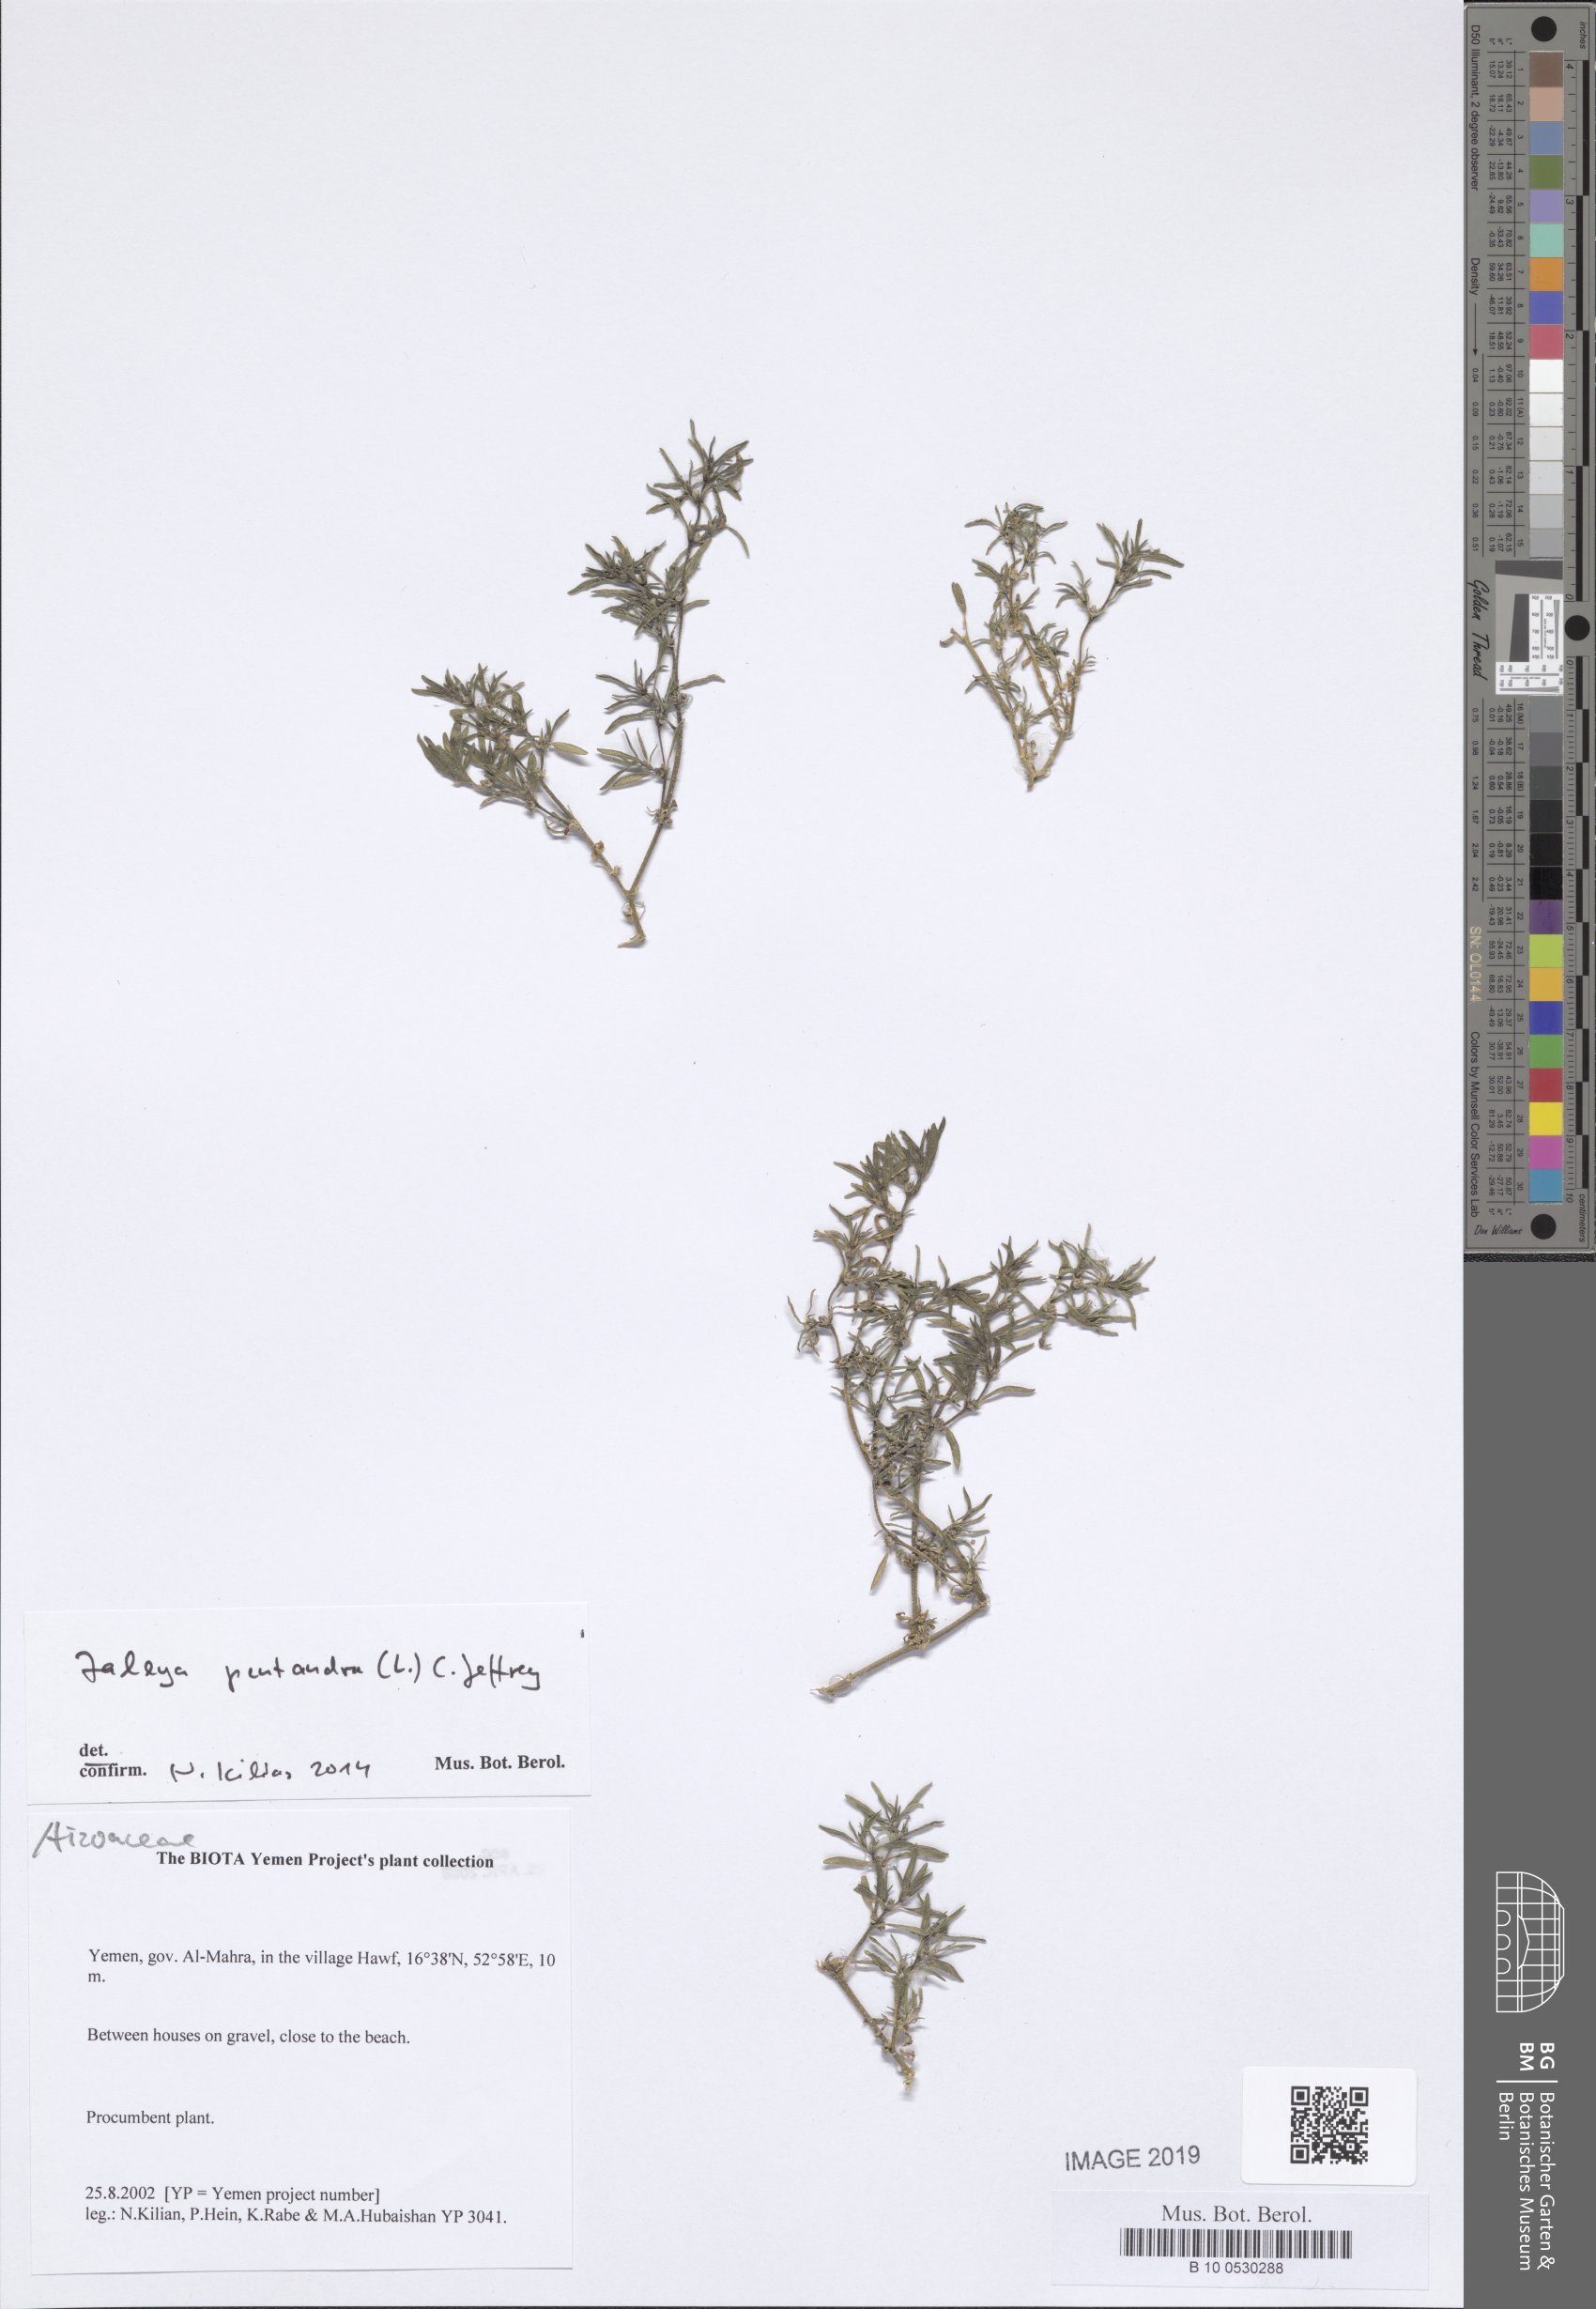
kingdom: Plantae
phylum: Tracheophyta
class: Magnoliopsida
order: Caryophyllales
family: Aizoaceae
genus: Zaleya
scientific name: Zaleya pentandra
